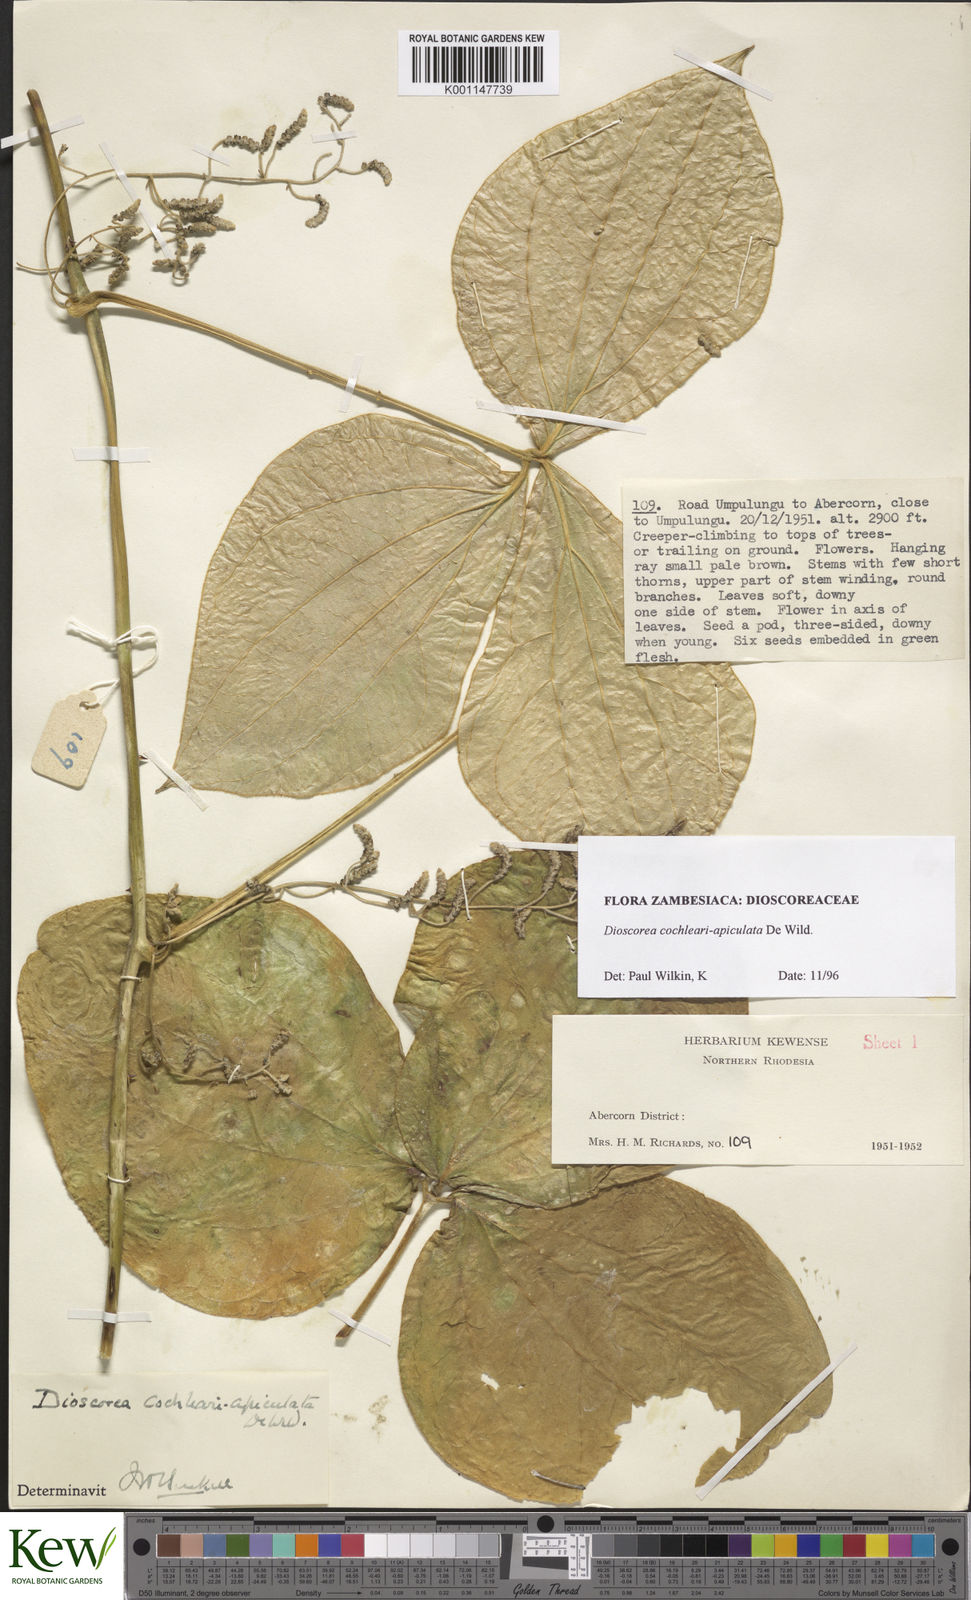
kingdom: Plantae
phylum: Tracheophyta
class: Liliopsida
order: Dioscoreales
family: Dioscoreaceae
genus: Dioscorea
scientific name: Dioscorea cochleariapiculata
